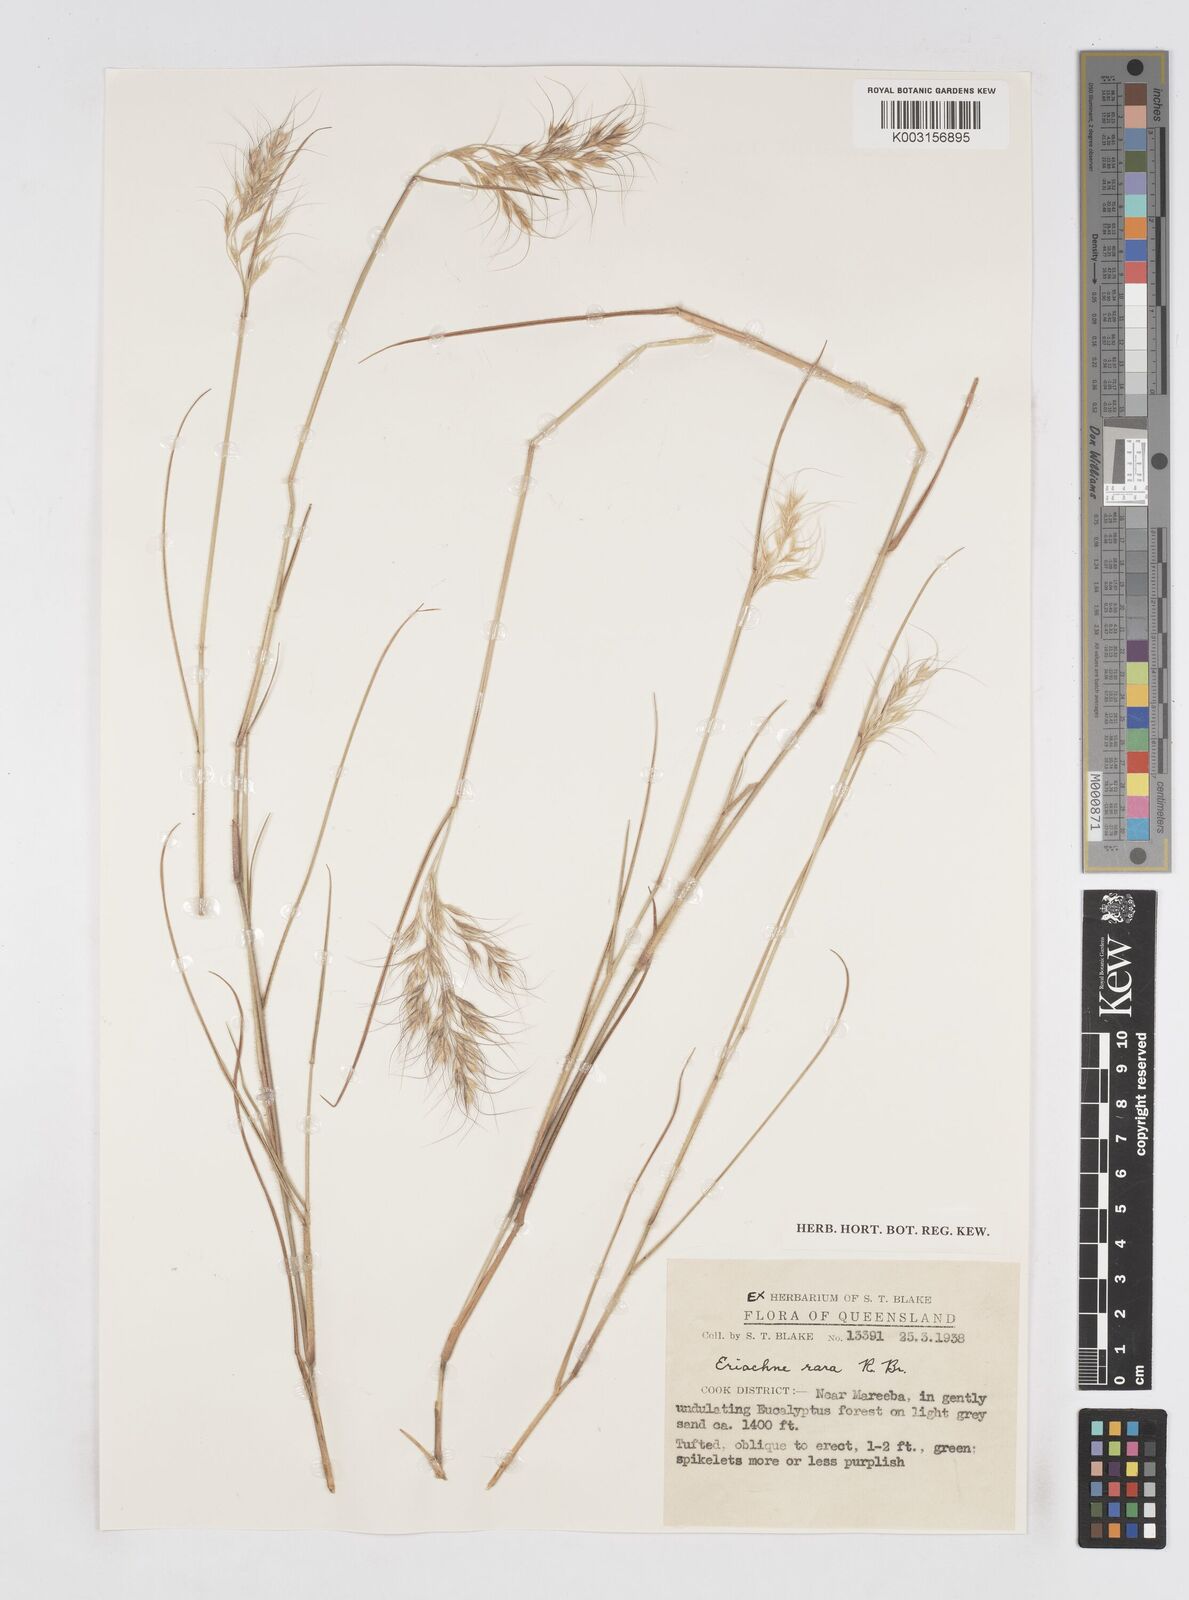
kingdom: Plantae
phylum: Tracheophyta
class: Liliopsida
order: Poales
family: Poaceae
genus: Eriachne
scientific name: Eriachne rara
